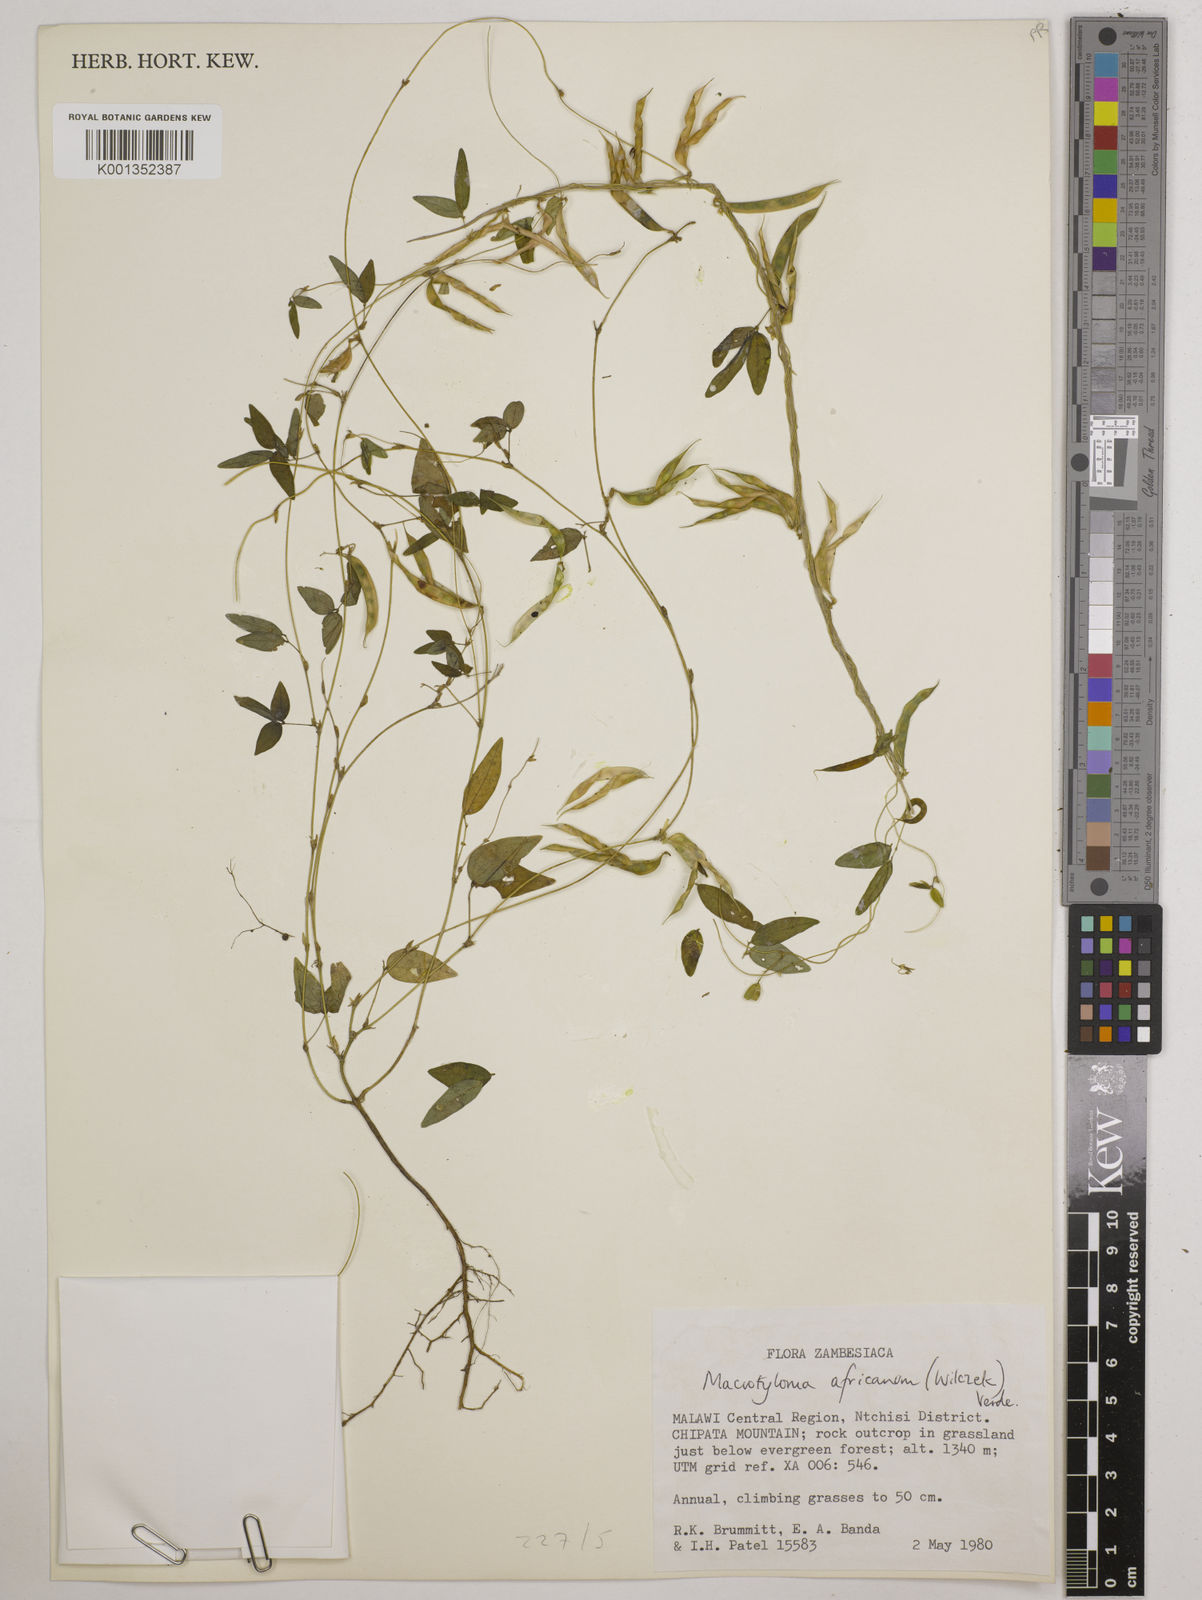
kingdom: Plantae
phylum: Tracheophyta
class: Magnoliopsida
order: Fabales
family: Fabaceae
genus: Macrotyloma
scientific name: Macrotyloma africanum
